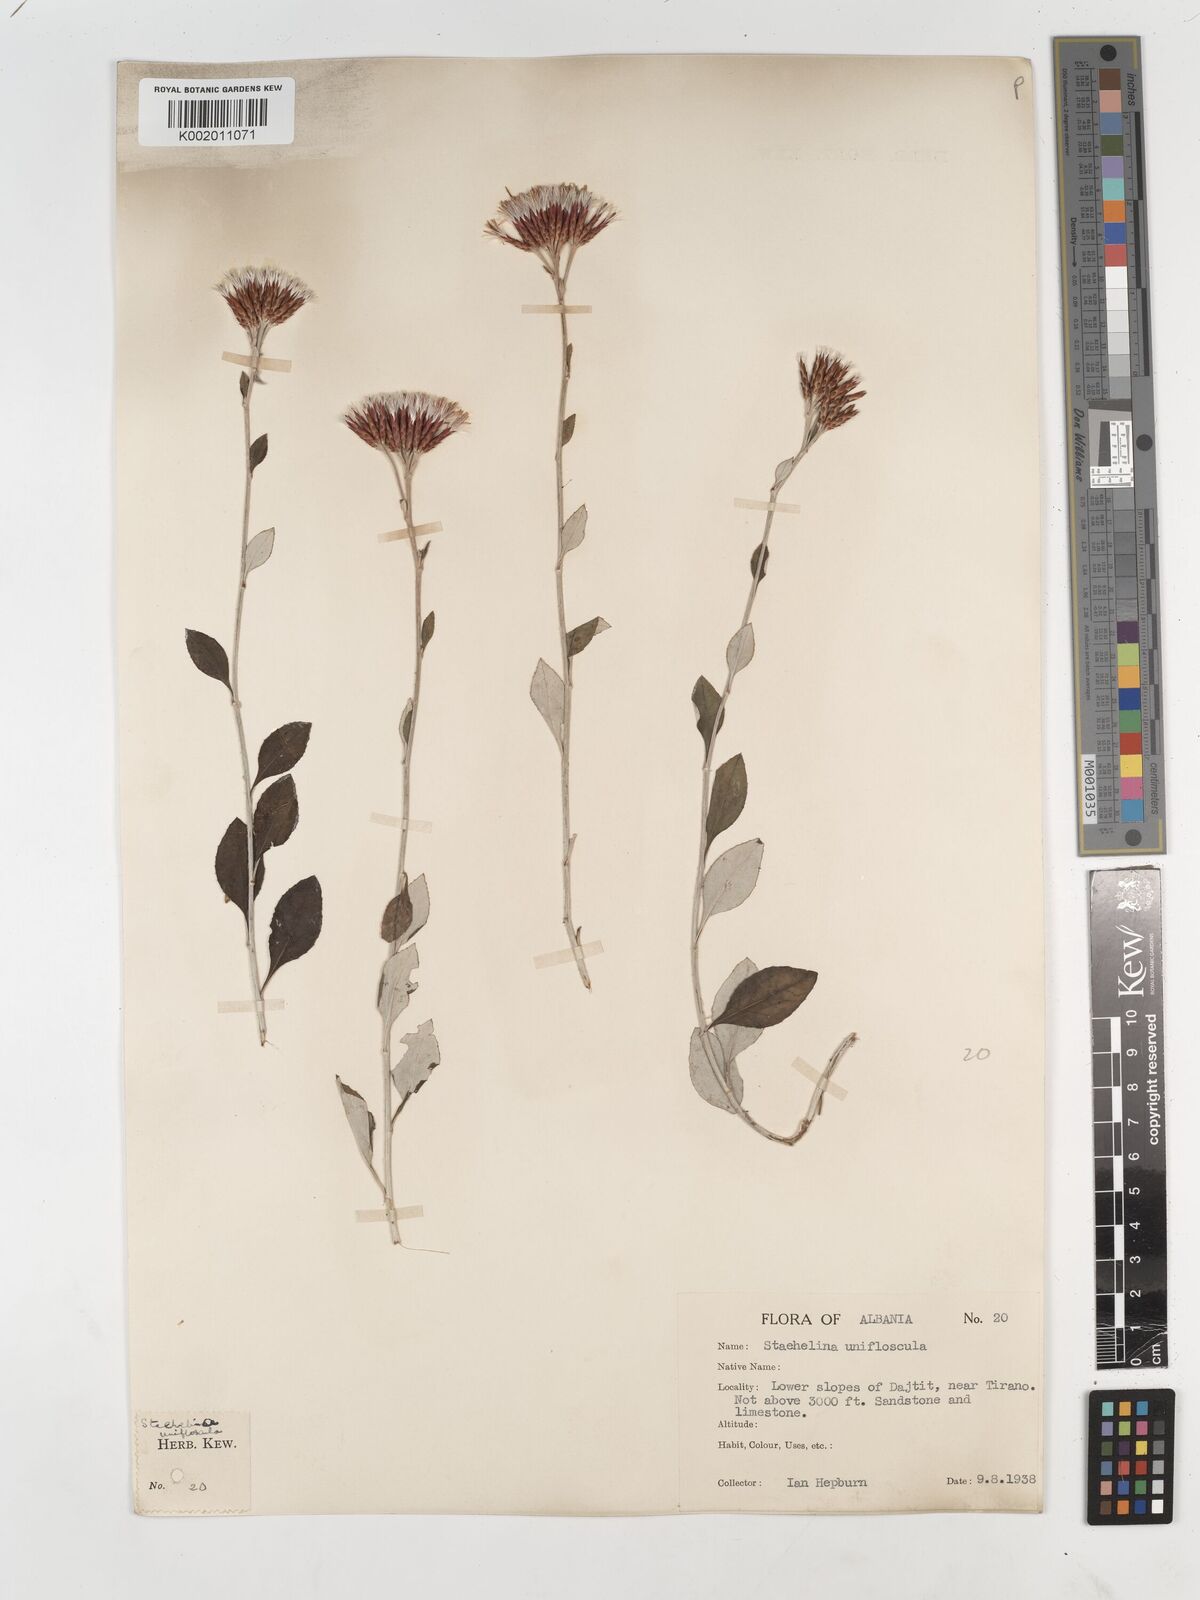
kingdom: Plantae
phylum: Tracheophyta
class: Magnoliopsida
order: Asterales
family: Asteraceae
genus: Staehelina
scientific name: Staehelina uniflosculosa
